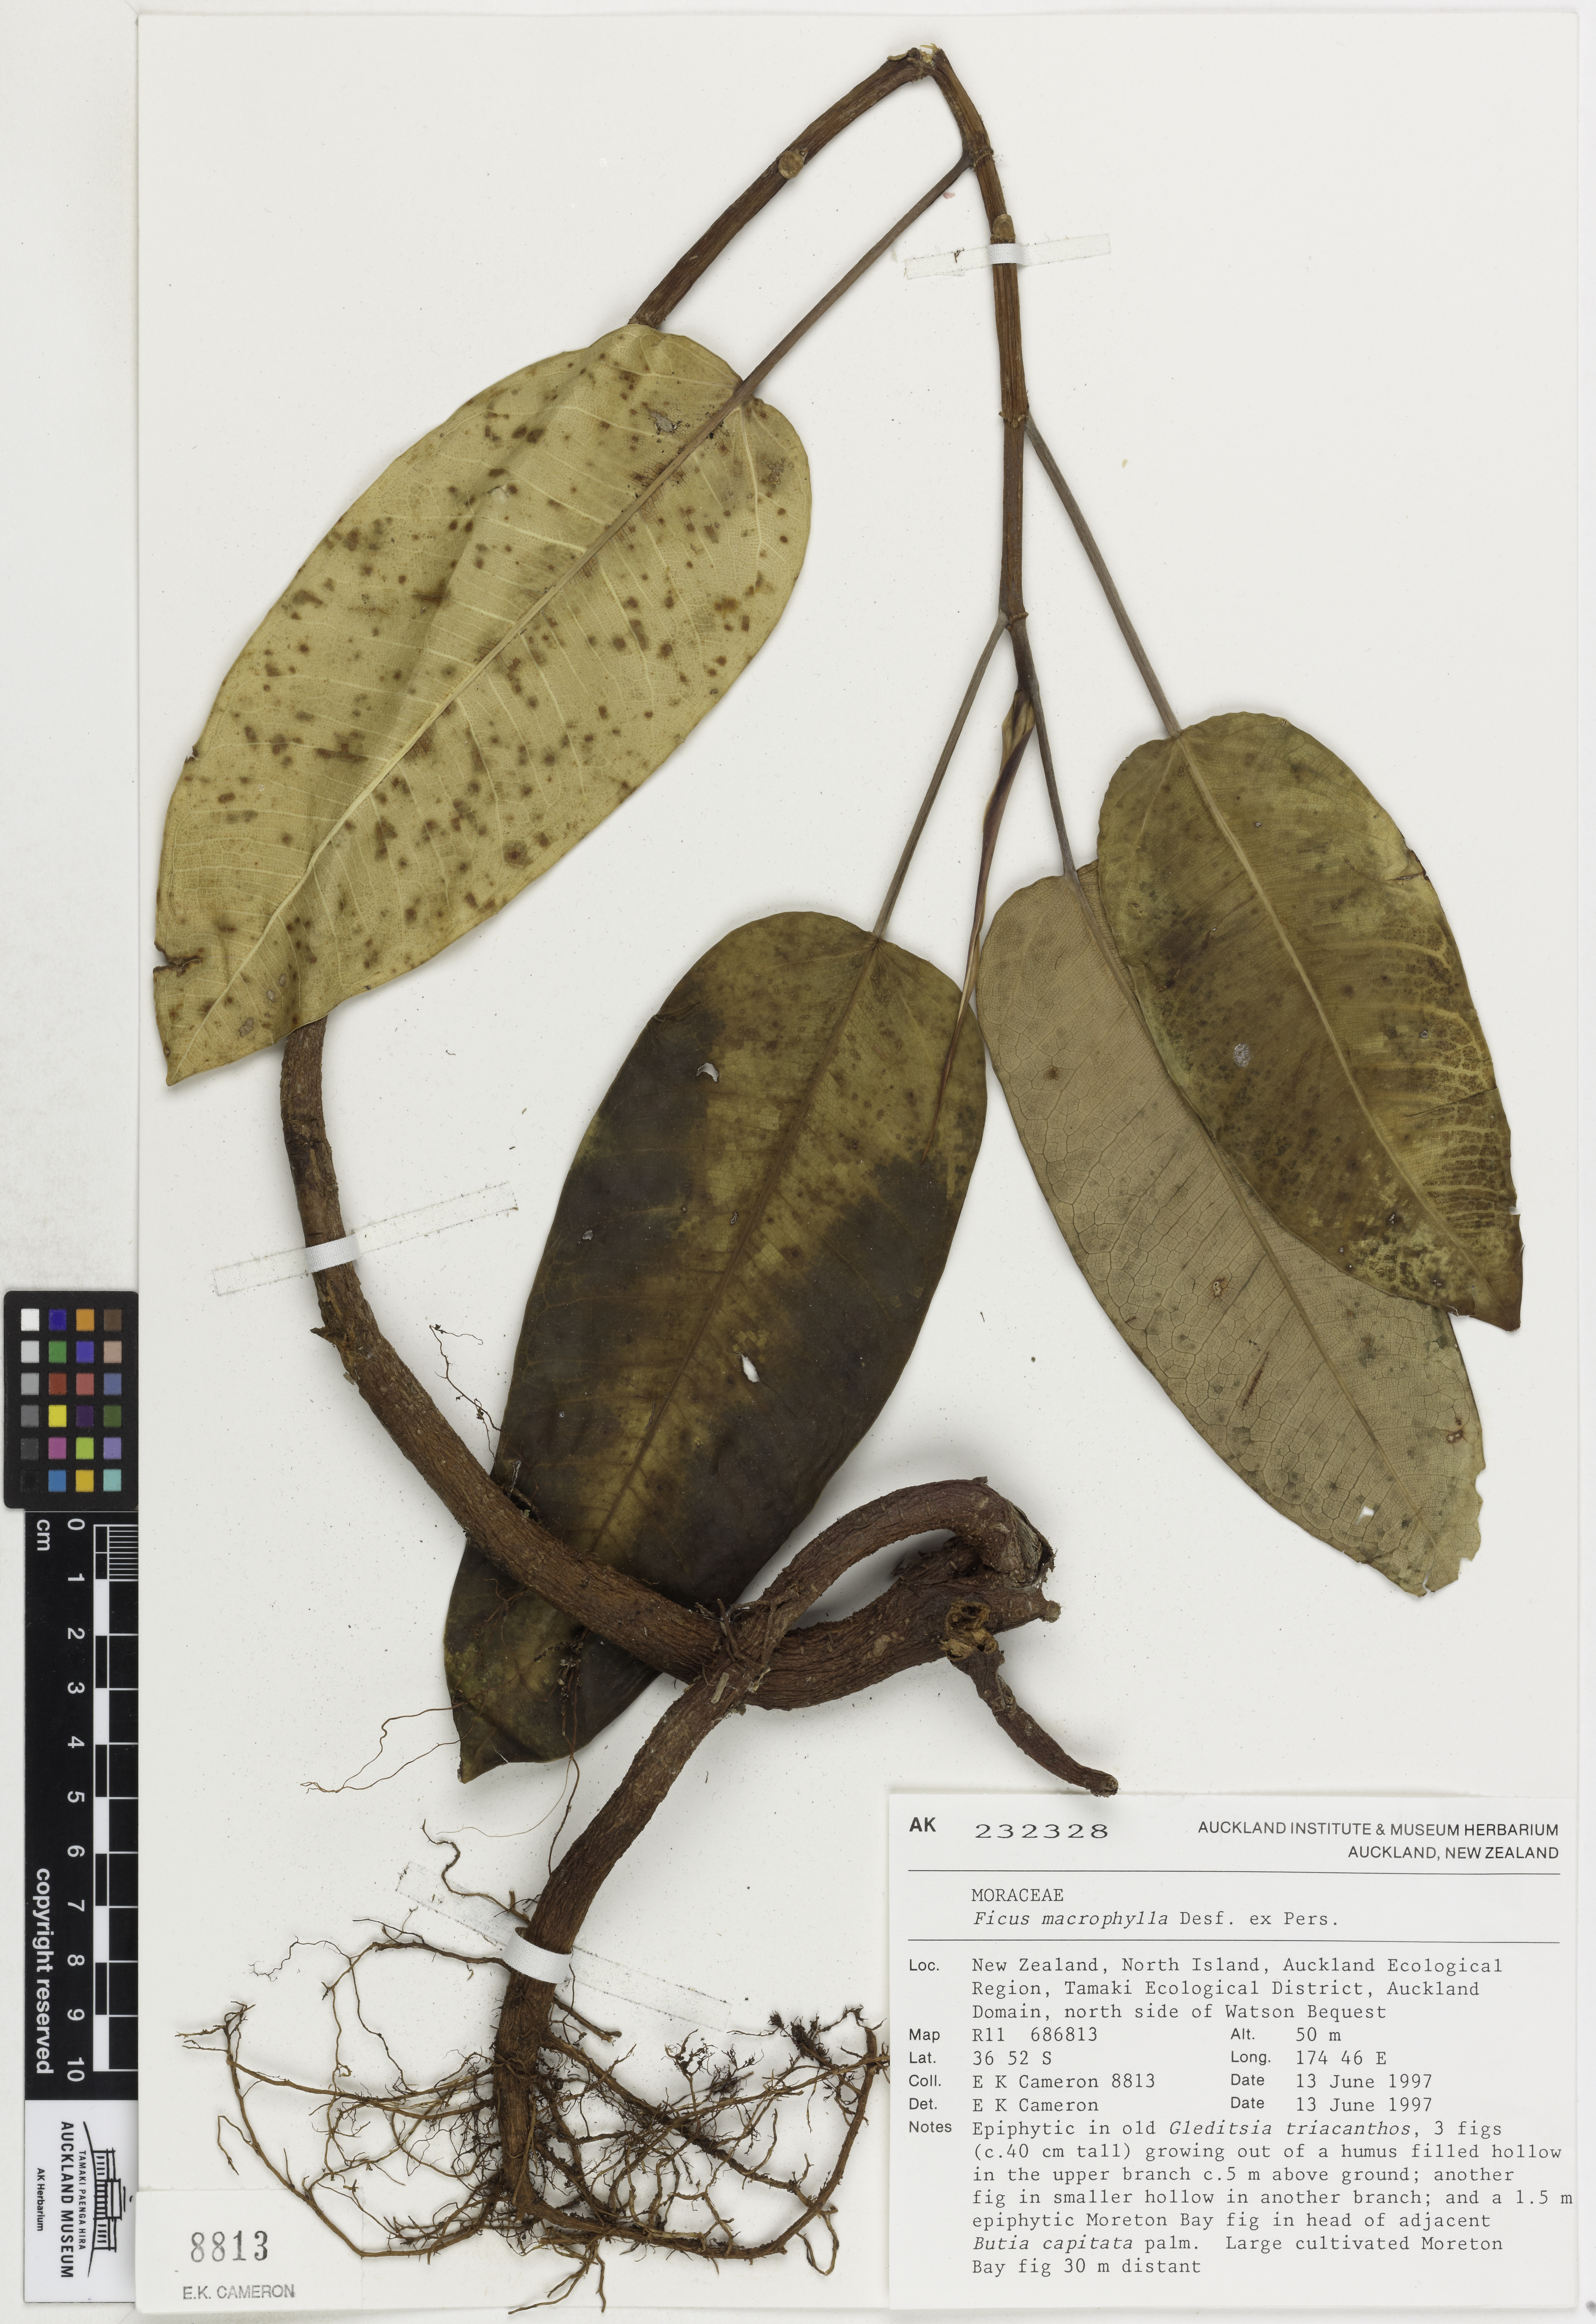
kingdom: Plantae
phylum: Tracheophyta
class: Magnoliopsida
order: Rosales
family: Moraceae
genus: Ficus
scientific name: Ficus macrophylla
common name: Moreton bay fig
